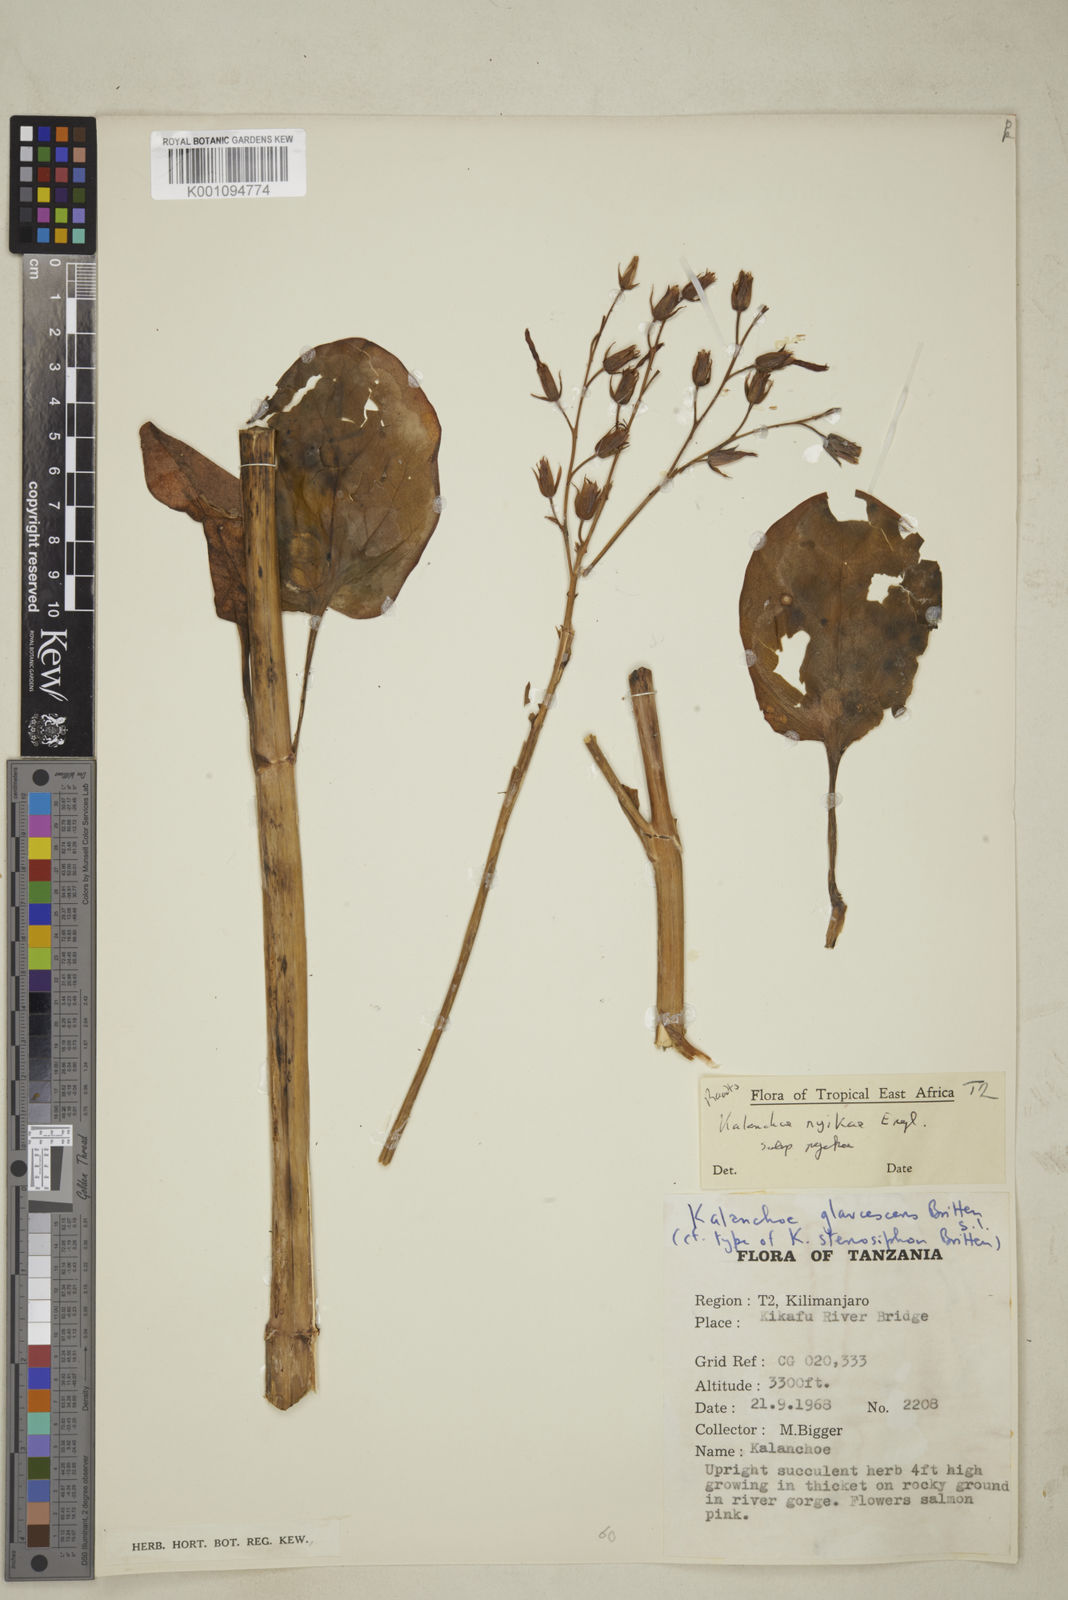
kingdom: Plantae
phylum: Tracheophyta
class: Magnoliopsida
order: Saxifragales
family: Crassulaceae
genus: Kalanchoe
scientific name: Kalanchoe nyikae
